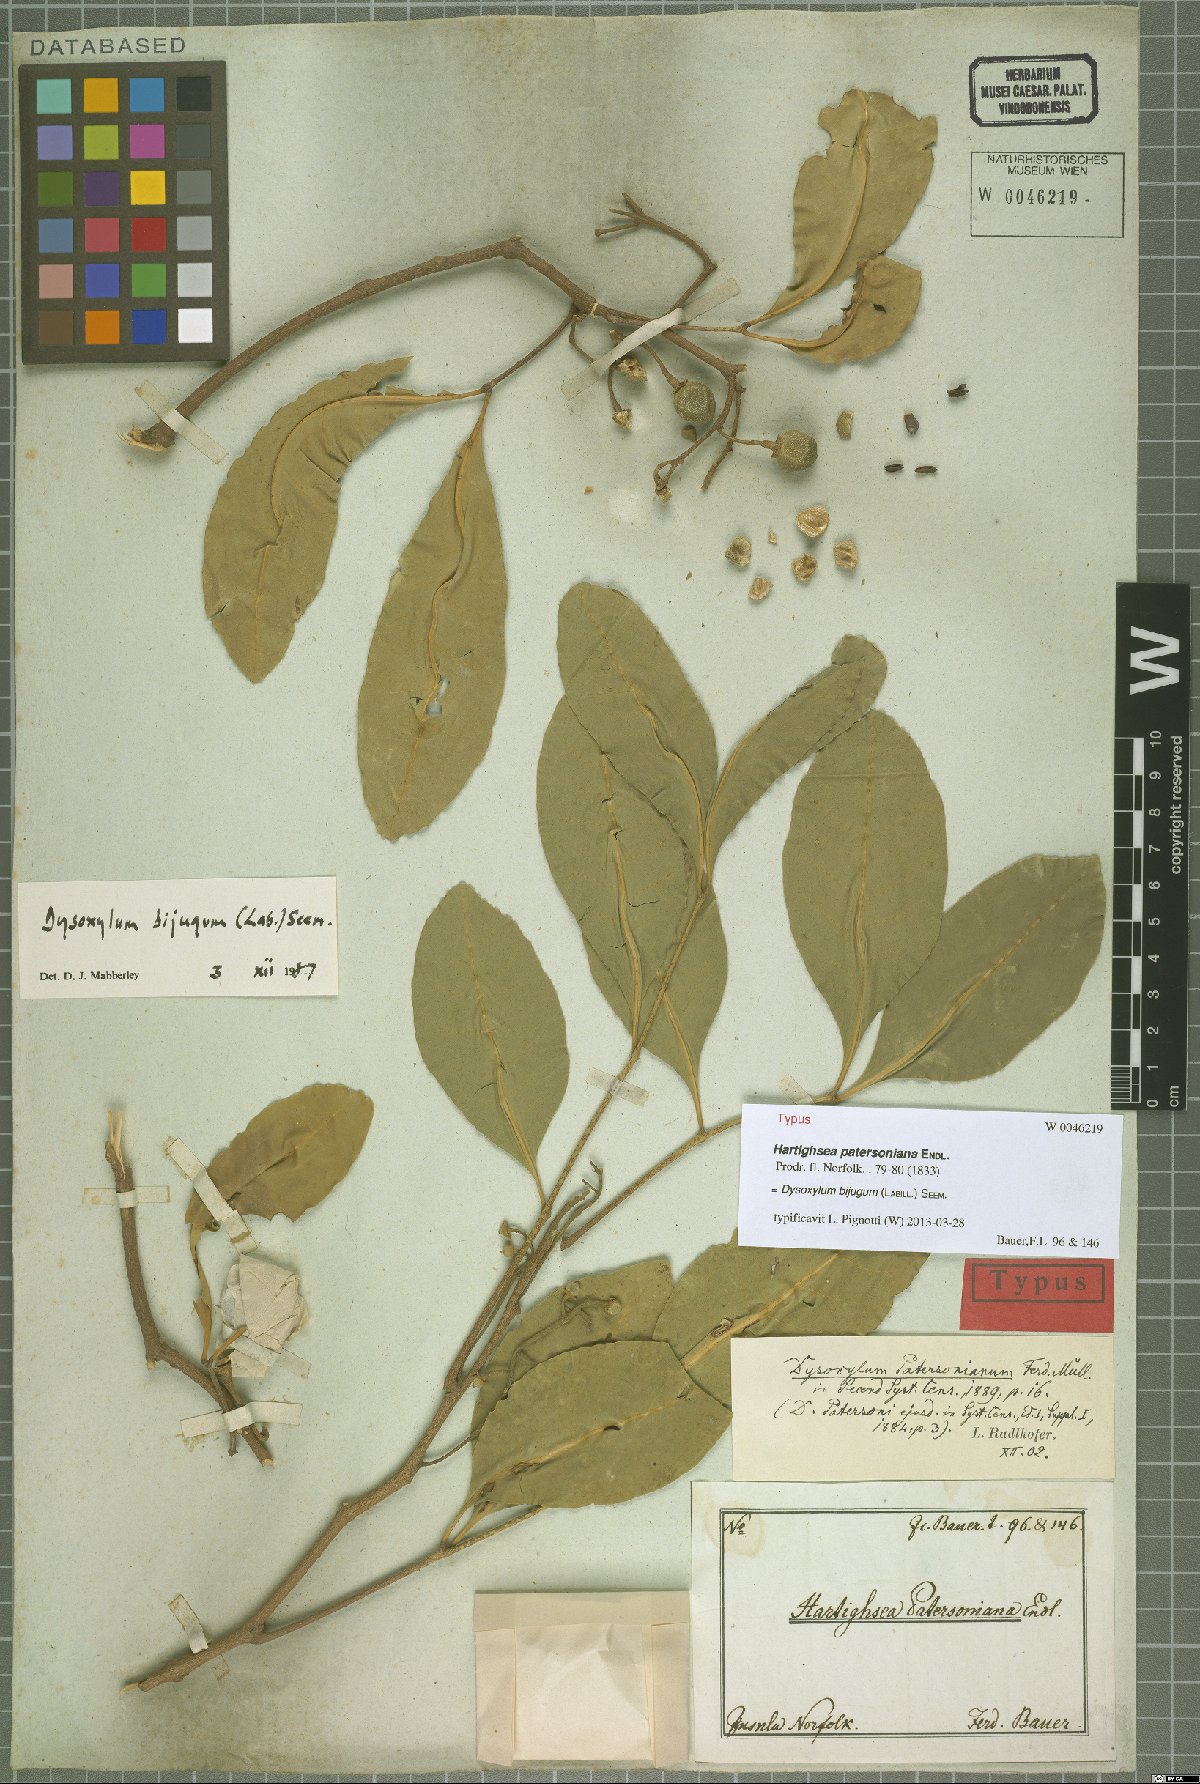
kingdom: Plantae
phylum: Tracheophyta
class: Magnoliopsida
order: Sapindales
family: Meliaceae
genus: Didymocheton
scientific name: Didymocheton bijugus
